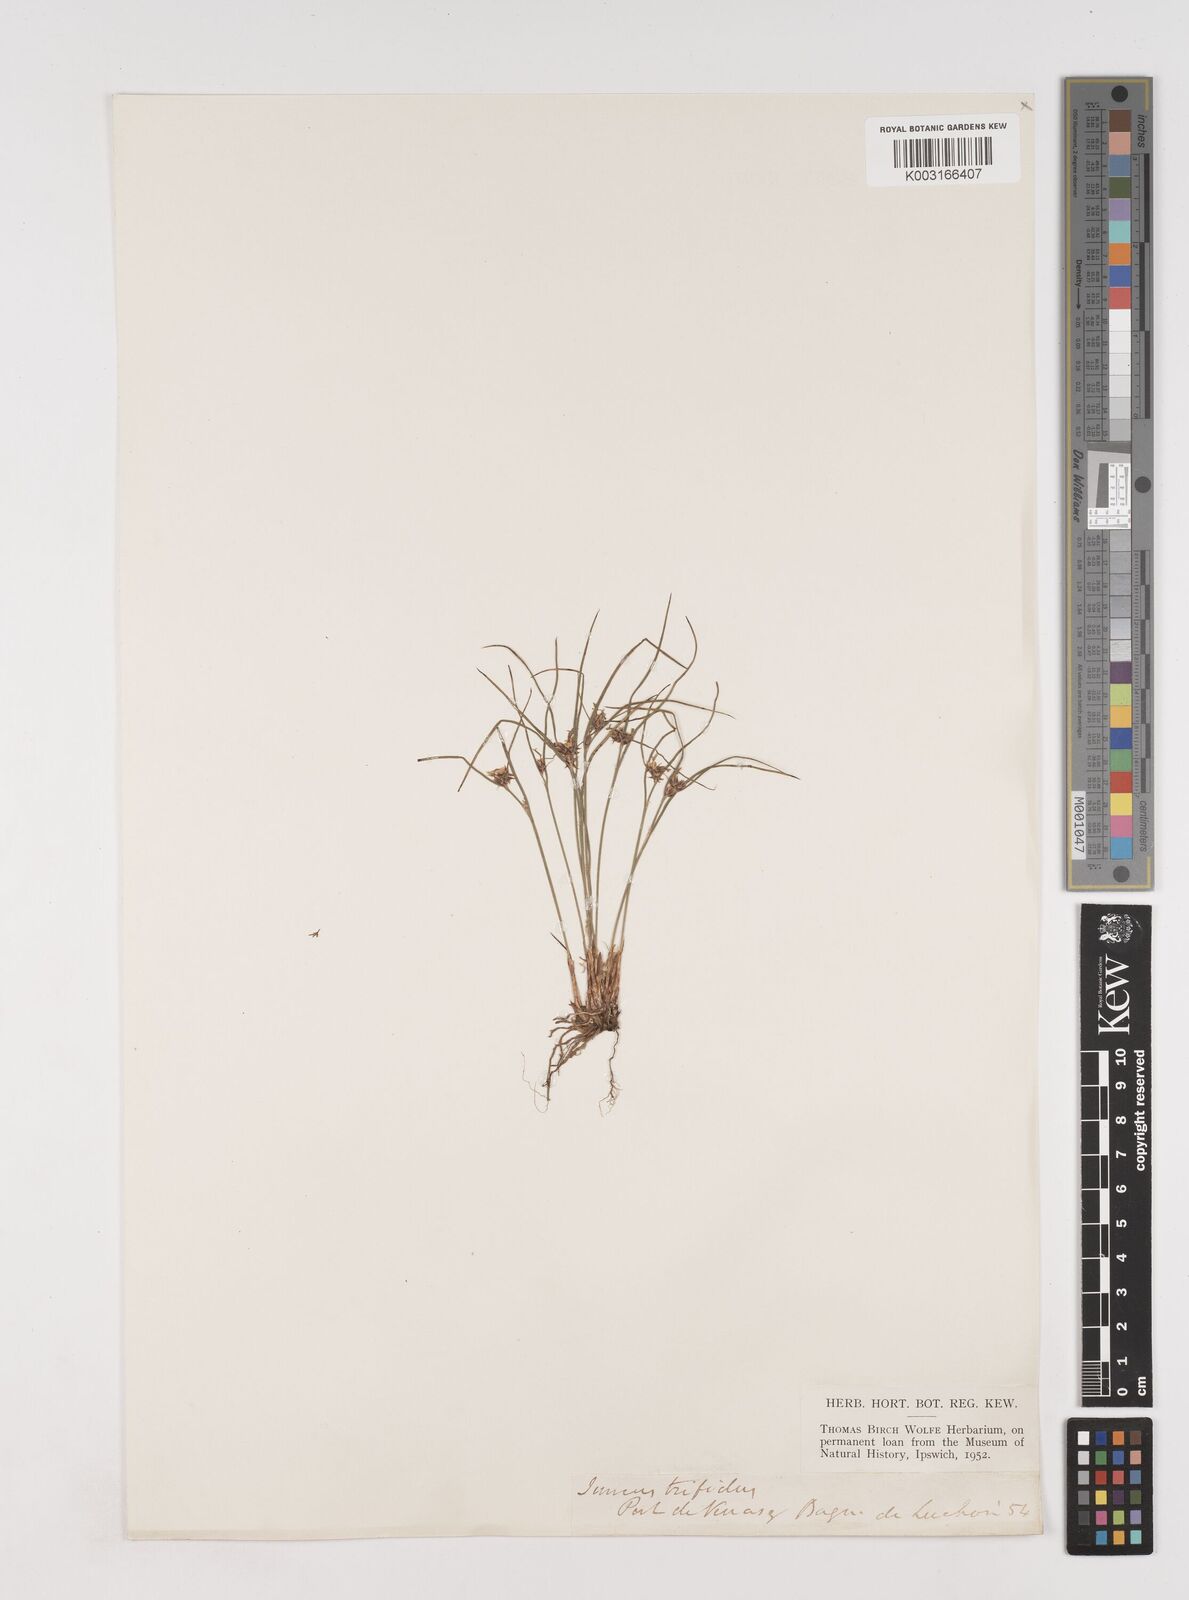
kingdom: Plantae
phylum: Tracheophyta
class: Liliopsida
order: Poales
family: Juncaceae
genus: Oreojuncus
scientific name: Oreojuncus trifidus
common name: Highland rush
